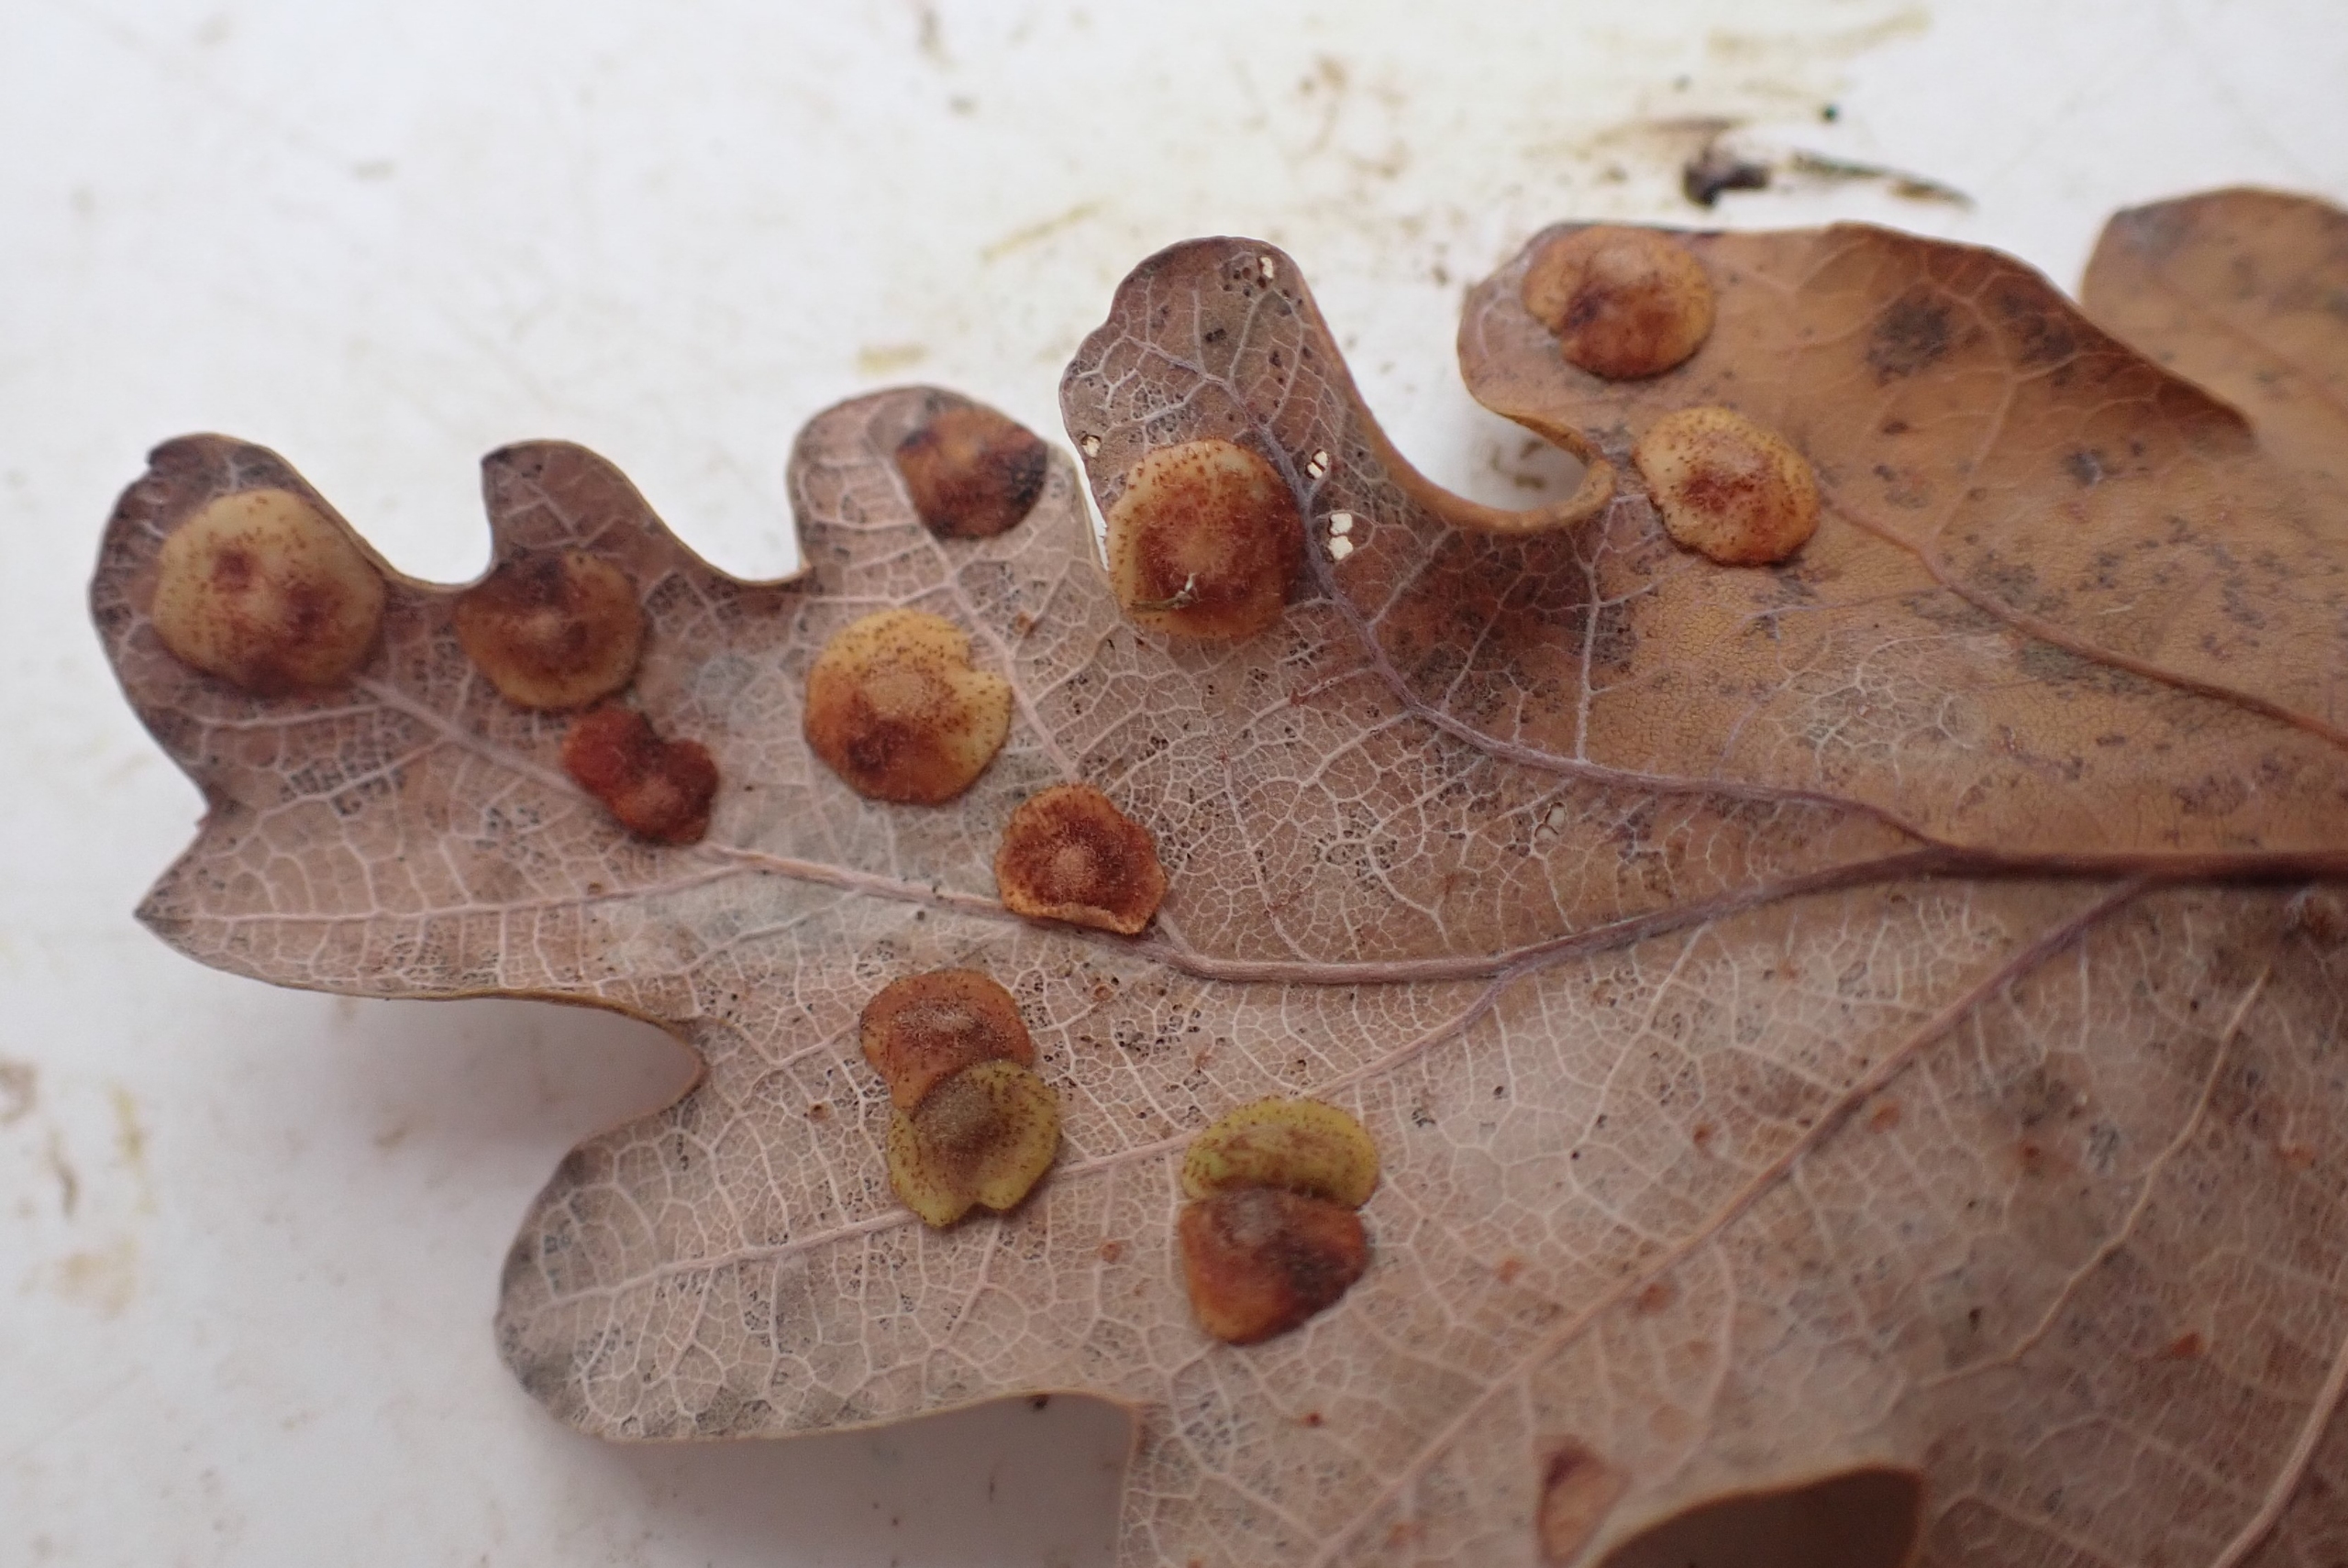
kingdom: Animalia
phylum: Arthropoda
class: Insecta
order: Hymenoptera
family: Cynipidae
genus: Neuroterus
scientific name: Neuroterus quercusbaccarum
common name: Linsegalhveps
